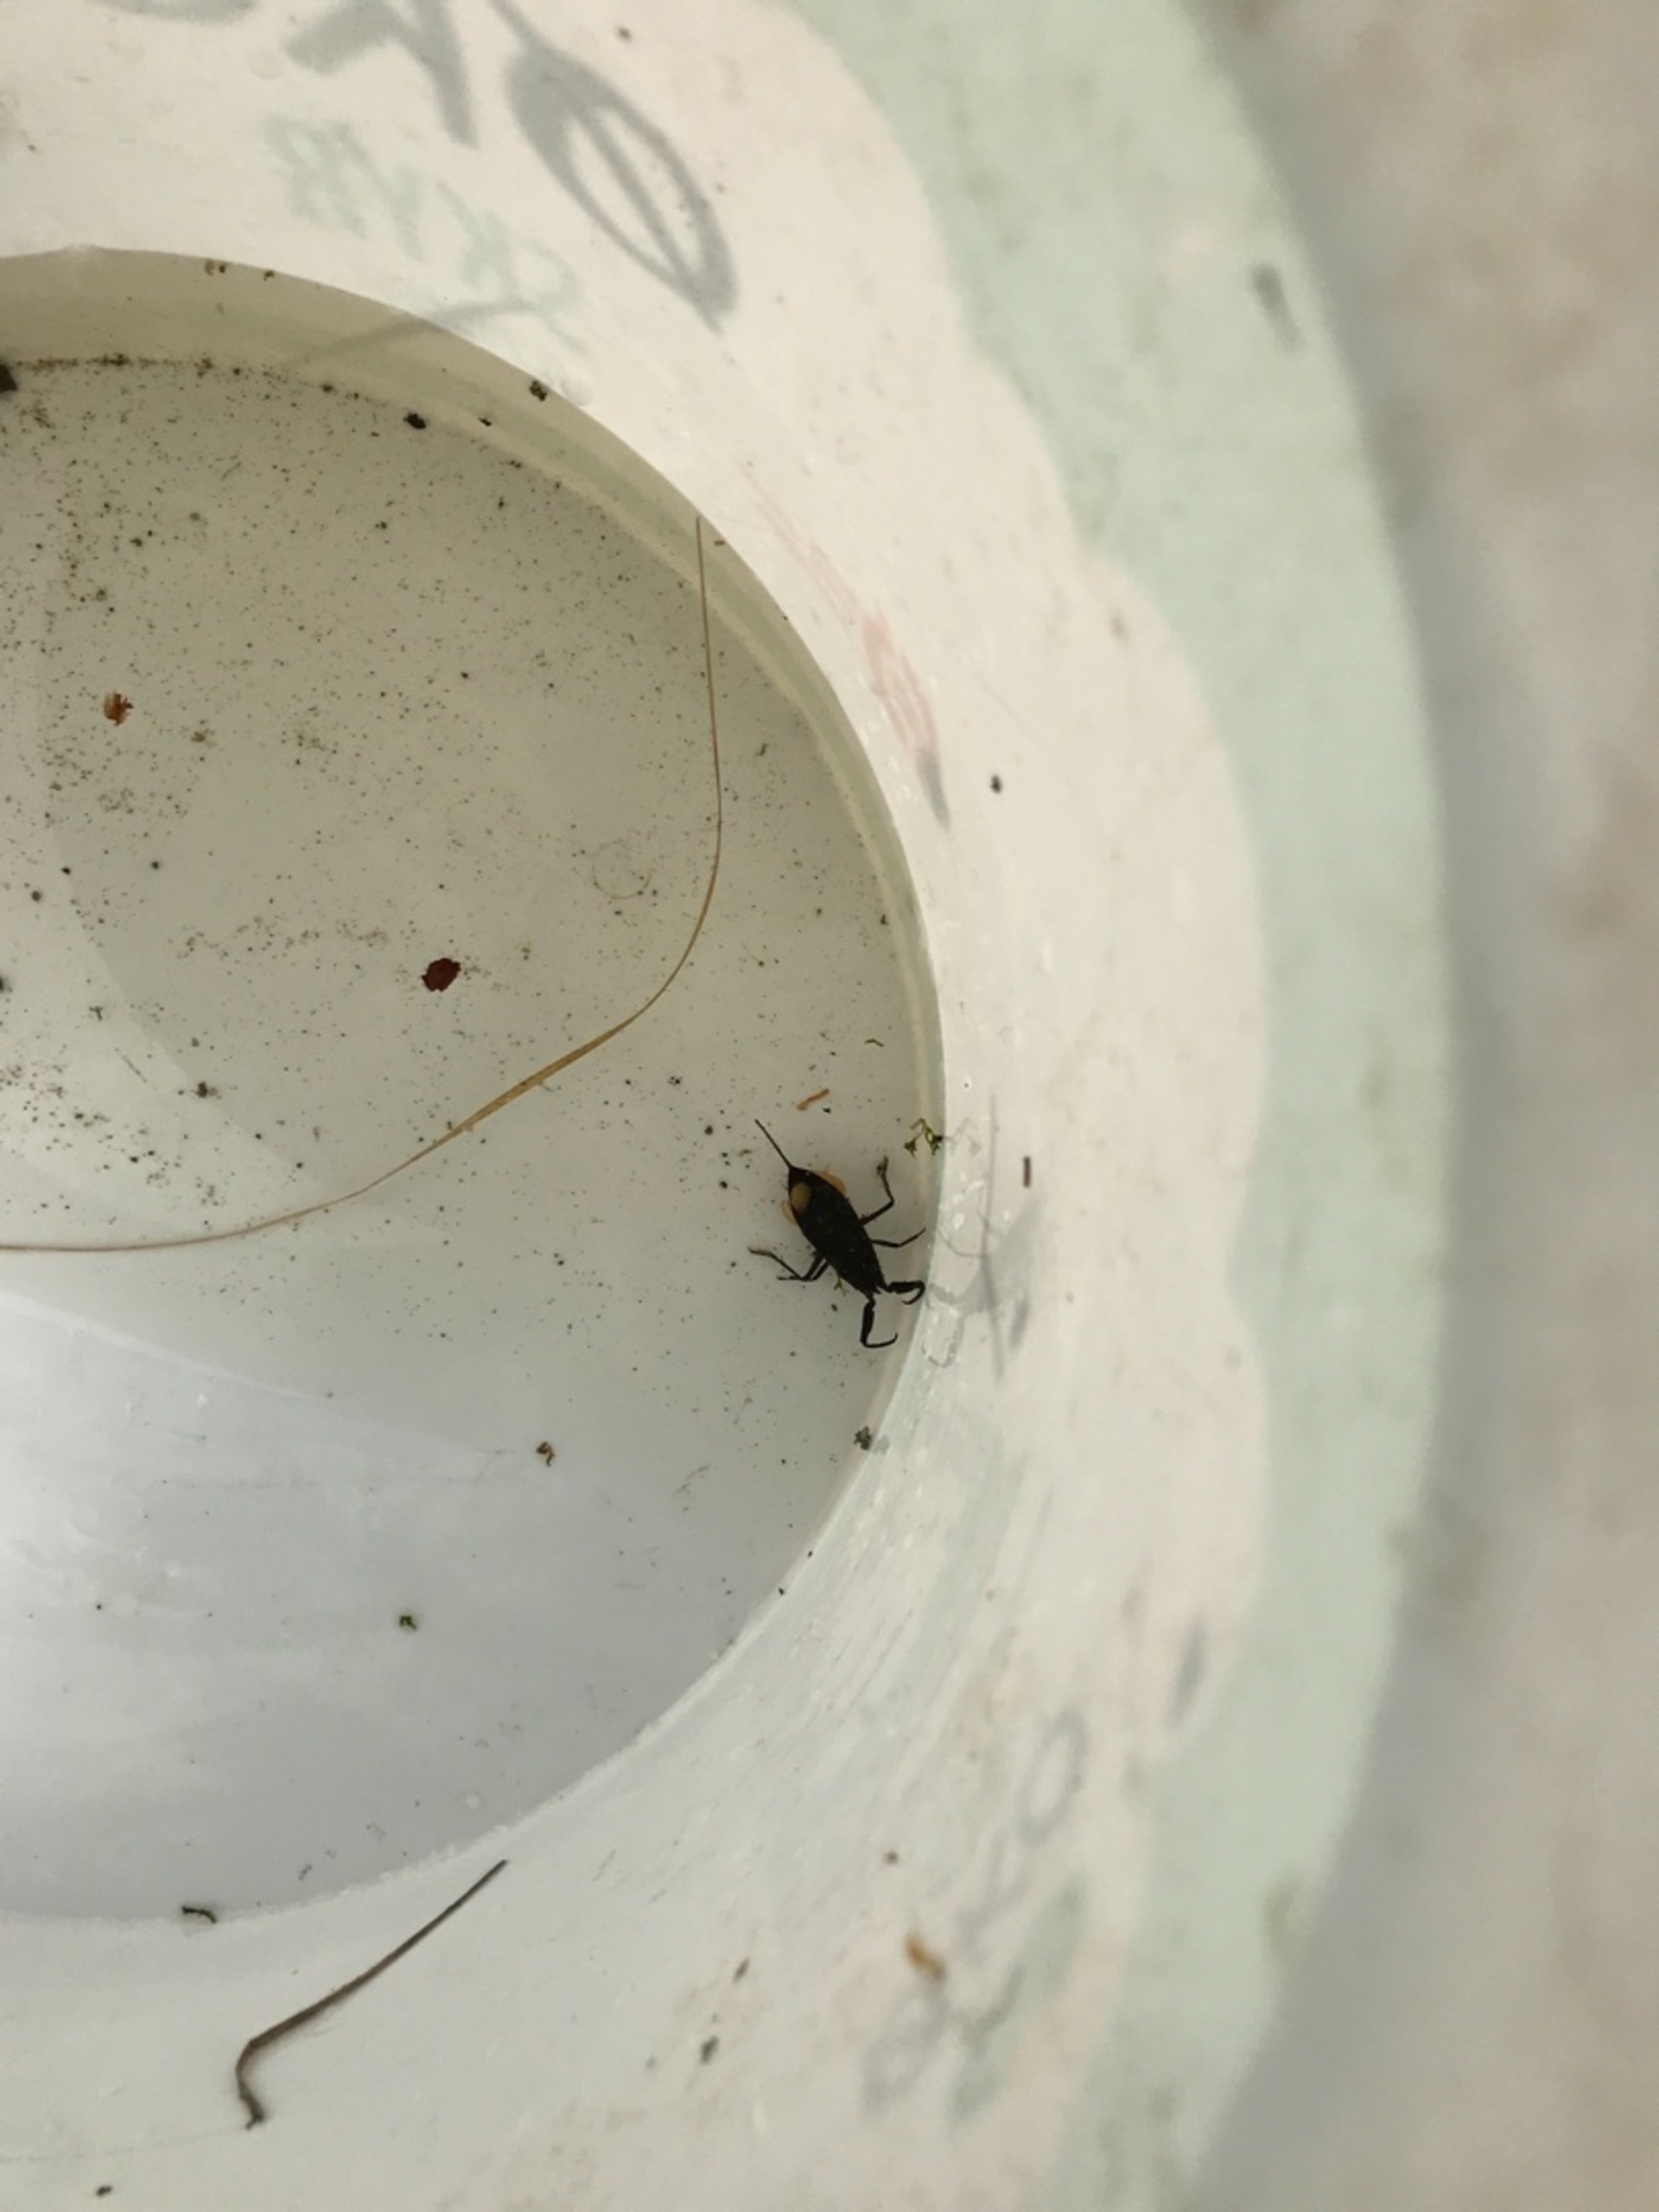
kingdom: Animalia
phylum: Arthropoda
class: Insecta
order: Hemiptera
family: Nepidae
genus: Nepa
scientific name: Nepa cinerea
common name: Skorpiontæge
